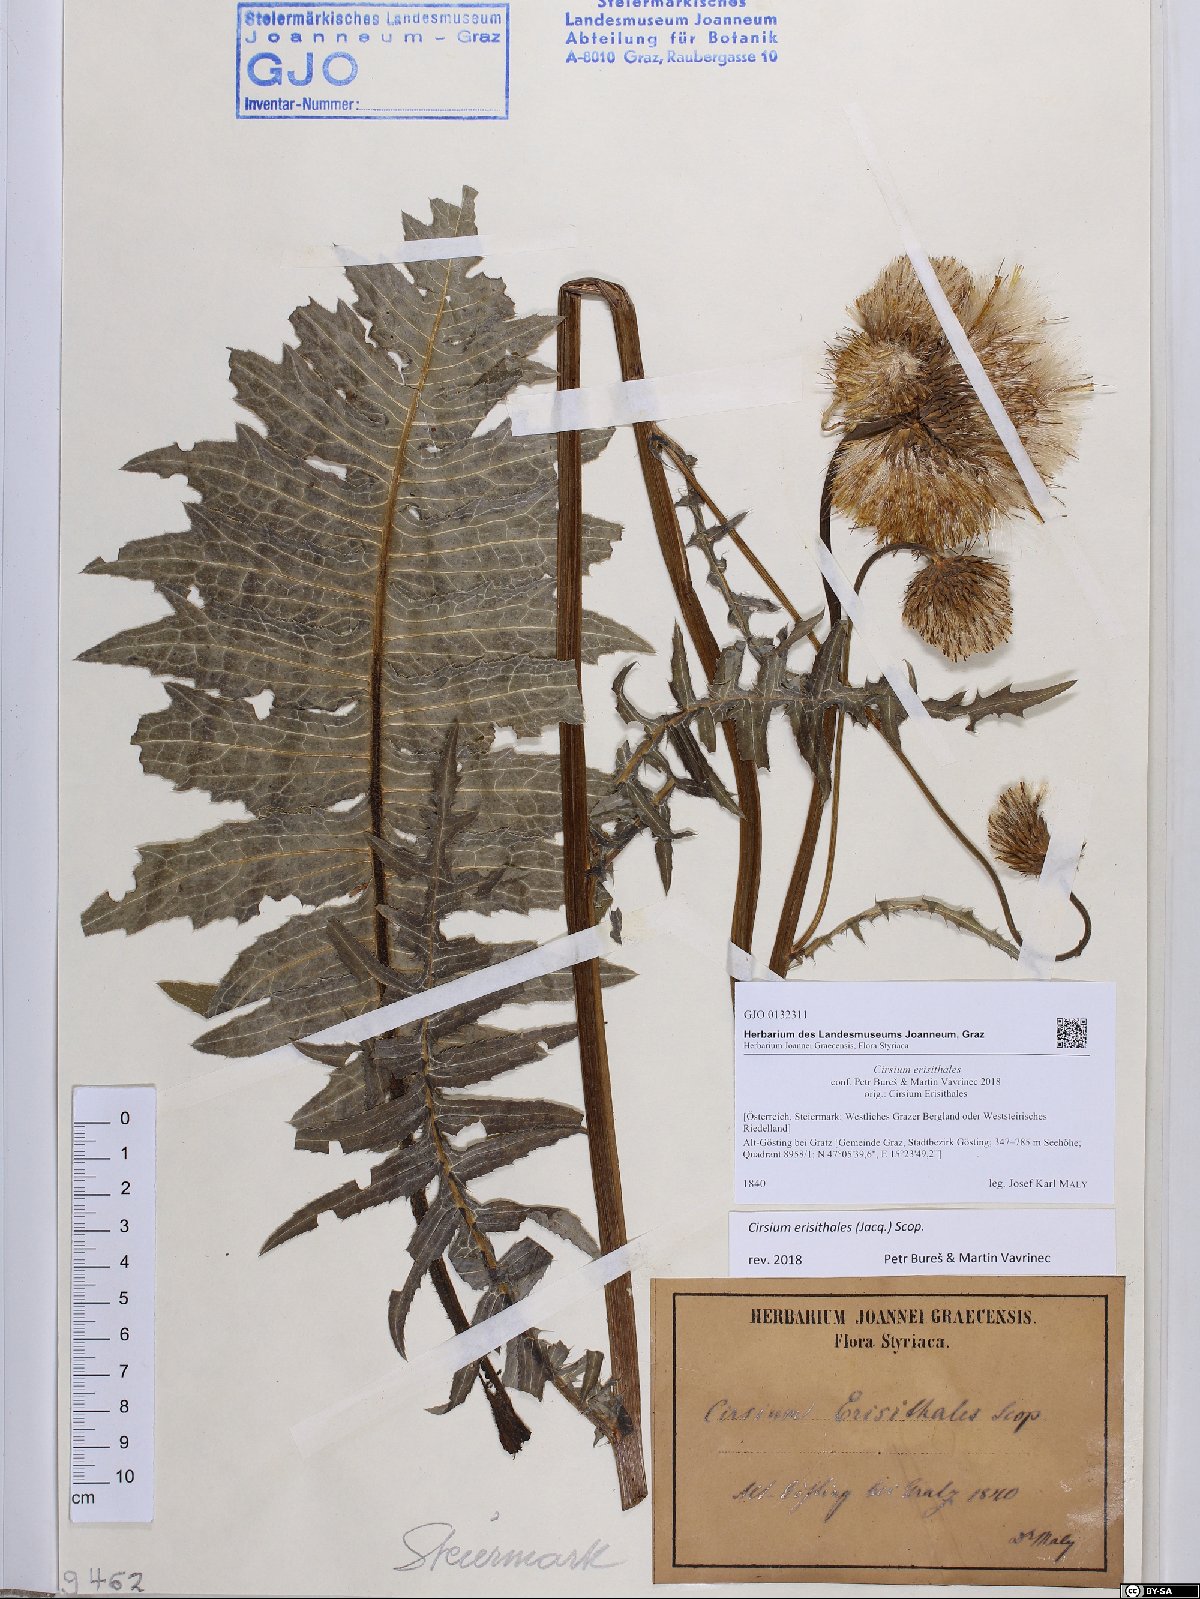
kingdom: Plantae
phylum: Tracheophyta
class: Magnoliopsida
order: Asterales
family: Asteraceae
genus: Cirsium
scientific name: Cirsium erisithales
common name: Yellow thistle
